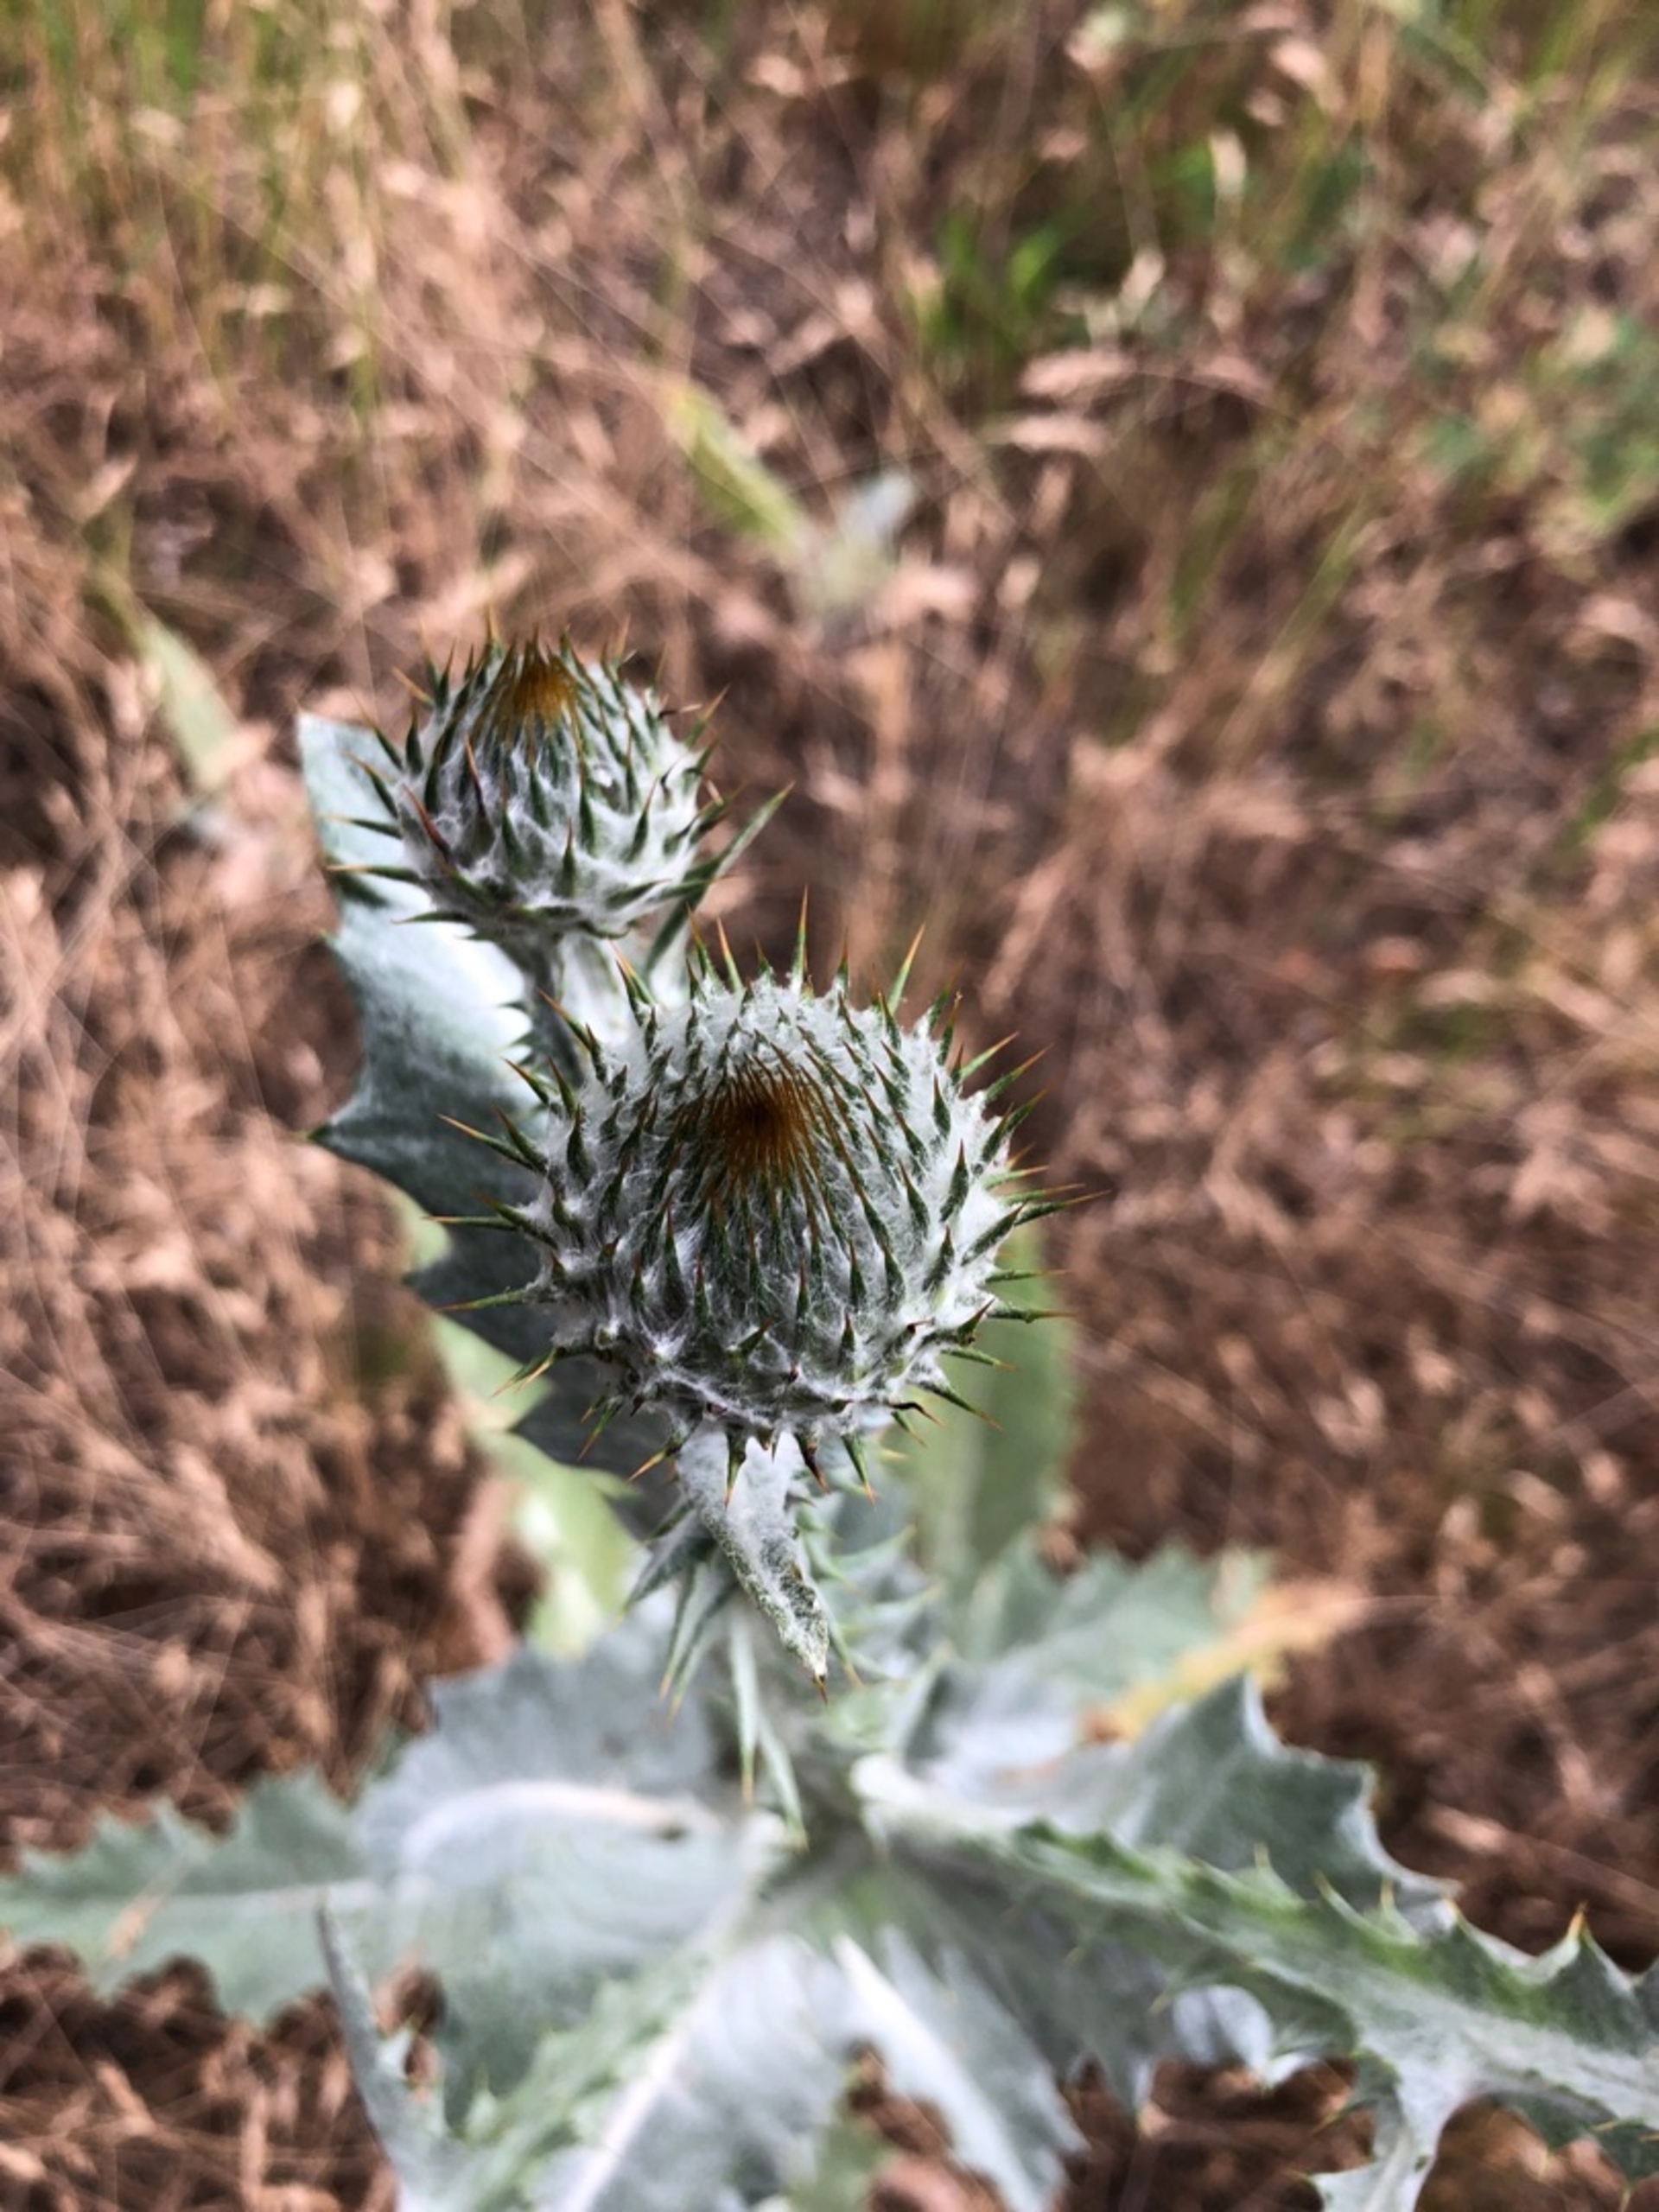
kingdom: Plantae
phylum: Tracheophyta
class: Magnoliopsida
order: Asterales
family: Asteraceae
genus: Onopordum
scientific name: Onopordum acanthium
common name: Æselfoder
